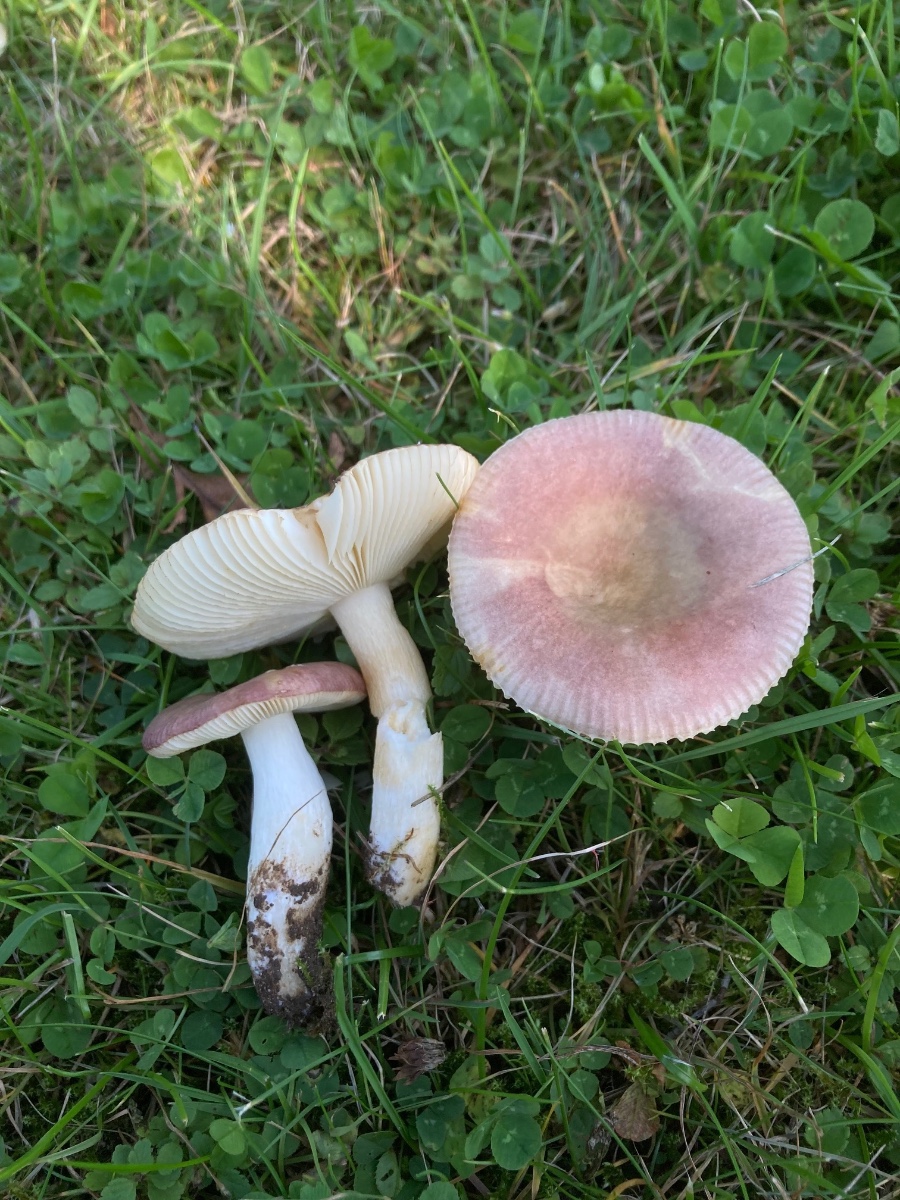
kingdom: Fungi
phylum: Basidiomycota
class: Agaricomycetes
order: Russulales
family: Russulaceae
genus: Russula
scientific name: Russula versicolor
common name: foranderlig skørhat
